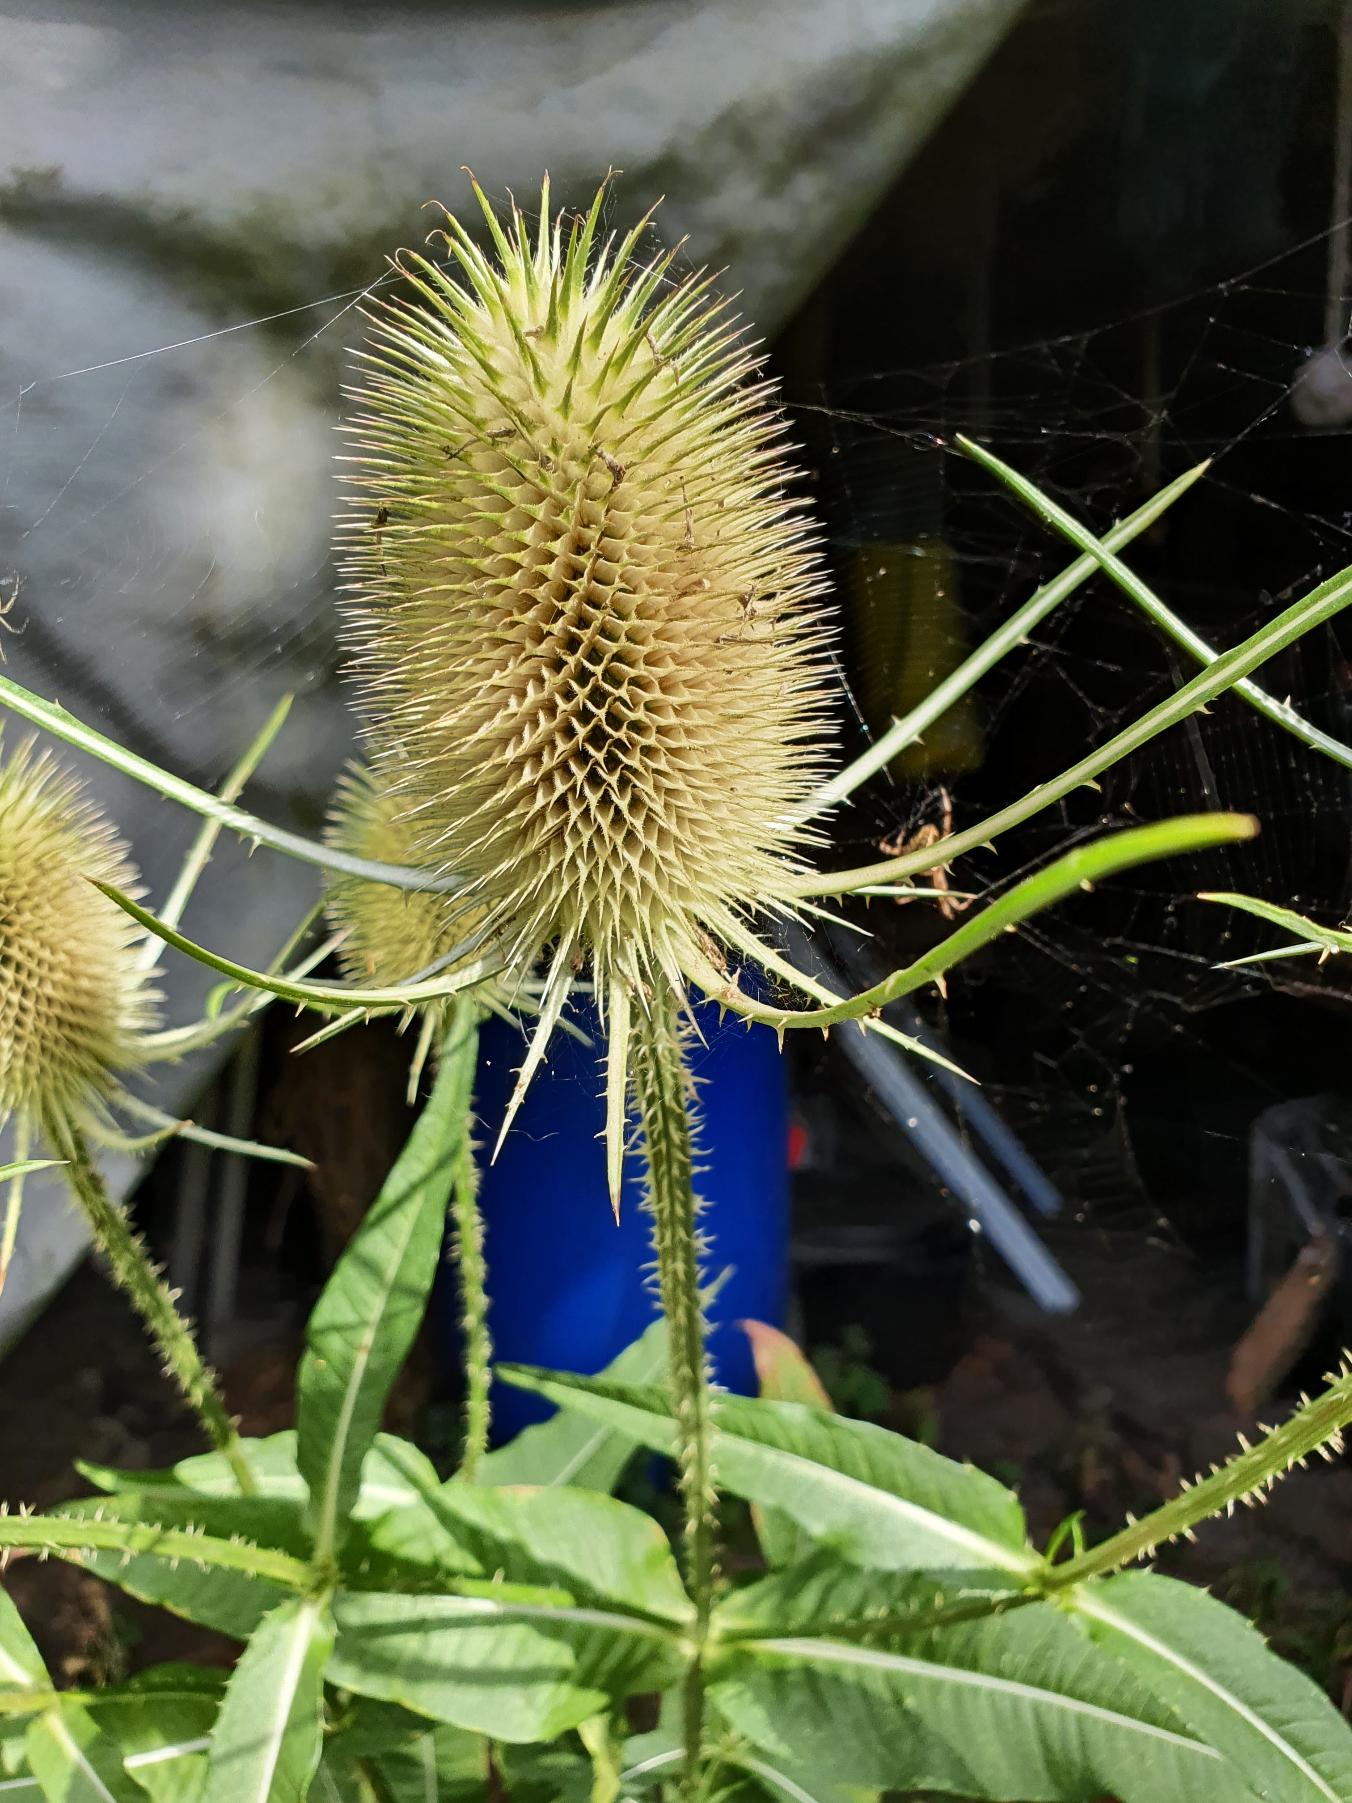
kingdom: Plantae
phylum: Tracheophyta
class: Magnoliopsida
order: Dipsacales
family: Caprifoliaceae
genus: Dipsacus
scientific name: Dipsacus fullonum
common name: Gærde-kartebolle
